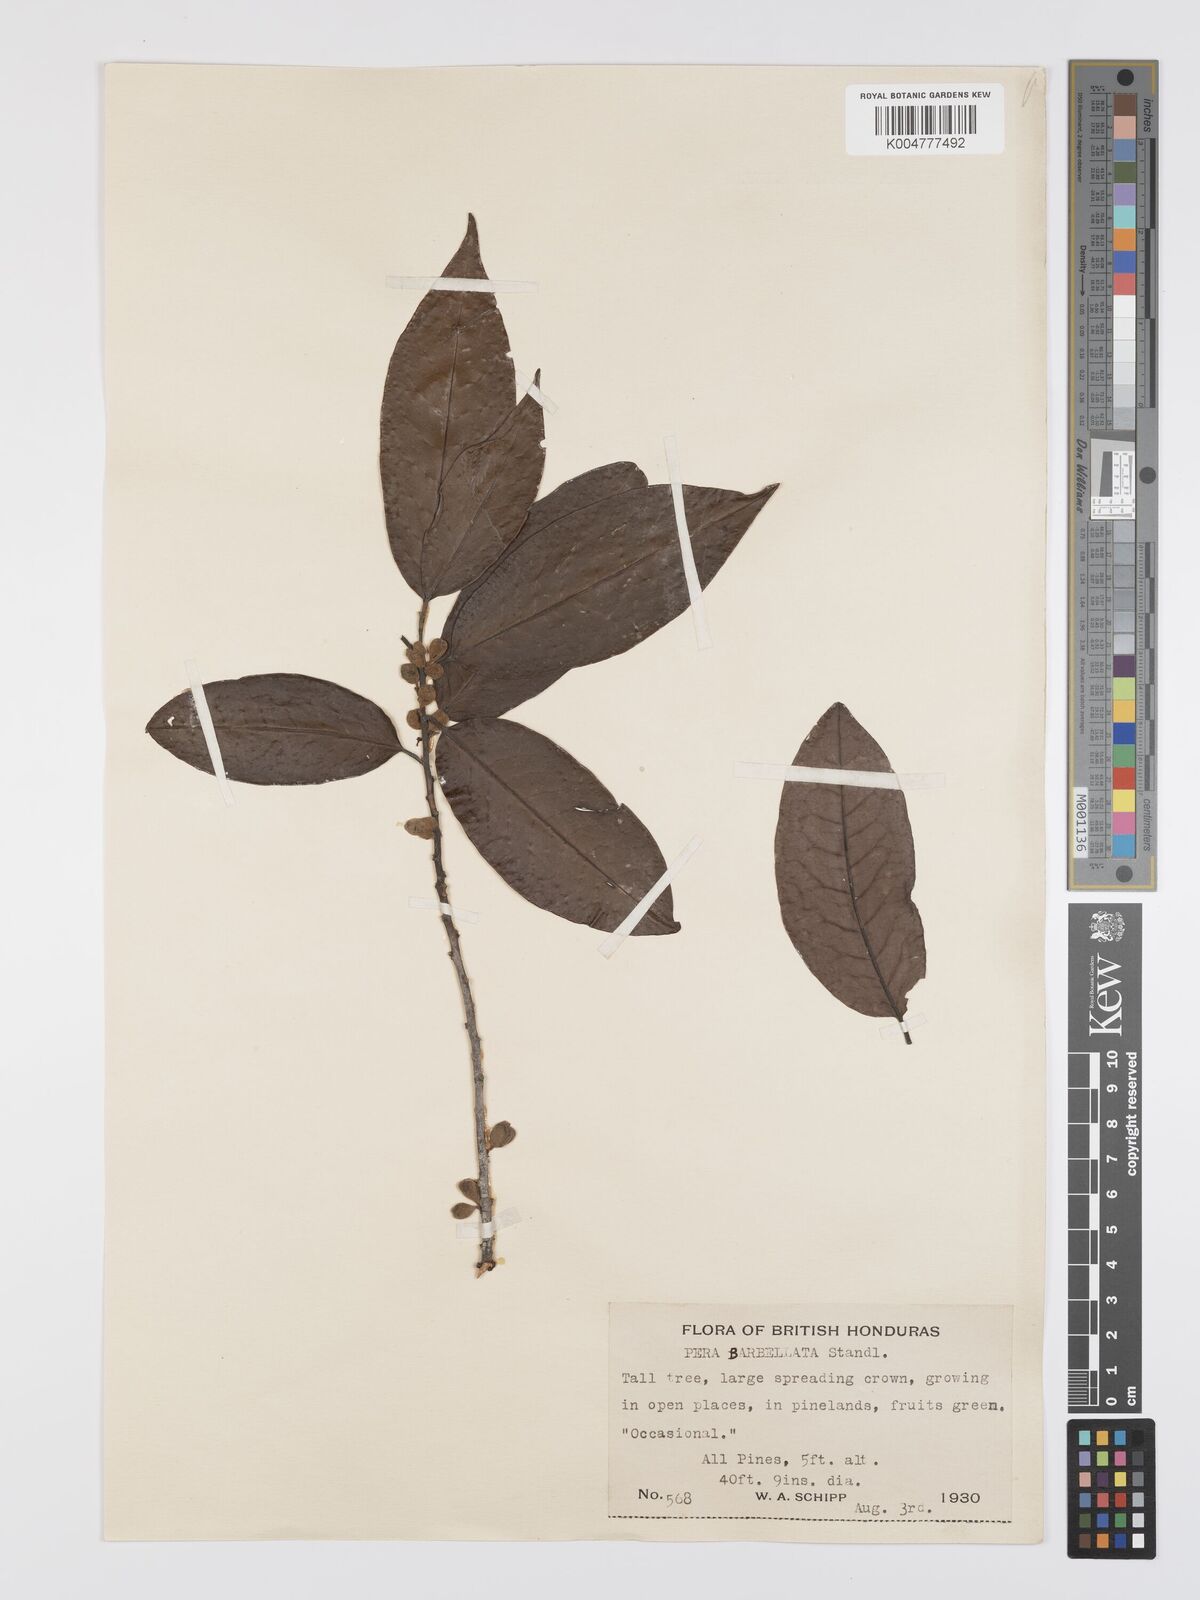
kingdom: Plantae
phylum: Tracheophyta
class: Magnoliopsida
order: Malpighiales
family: Peraceae
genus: Pera
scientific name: Pera barbellata
